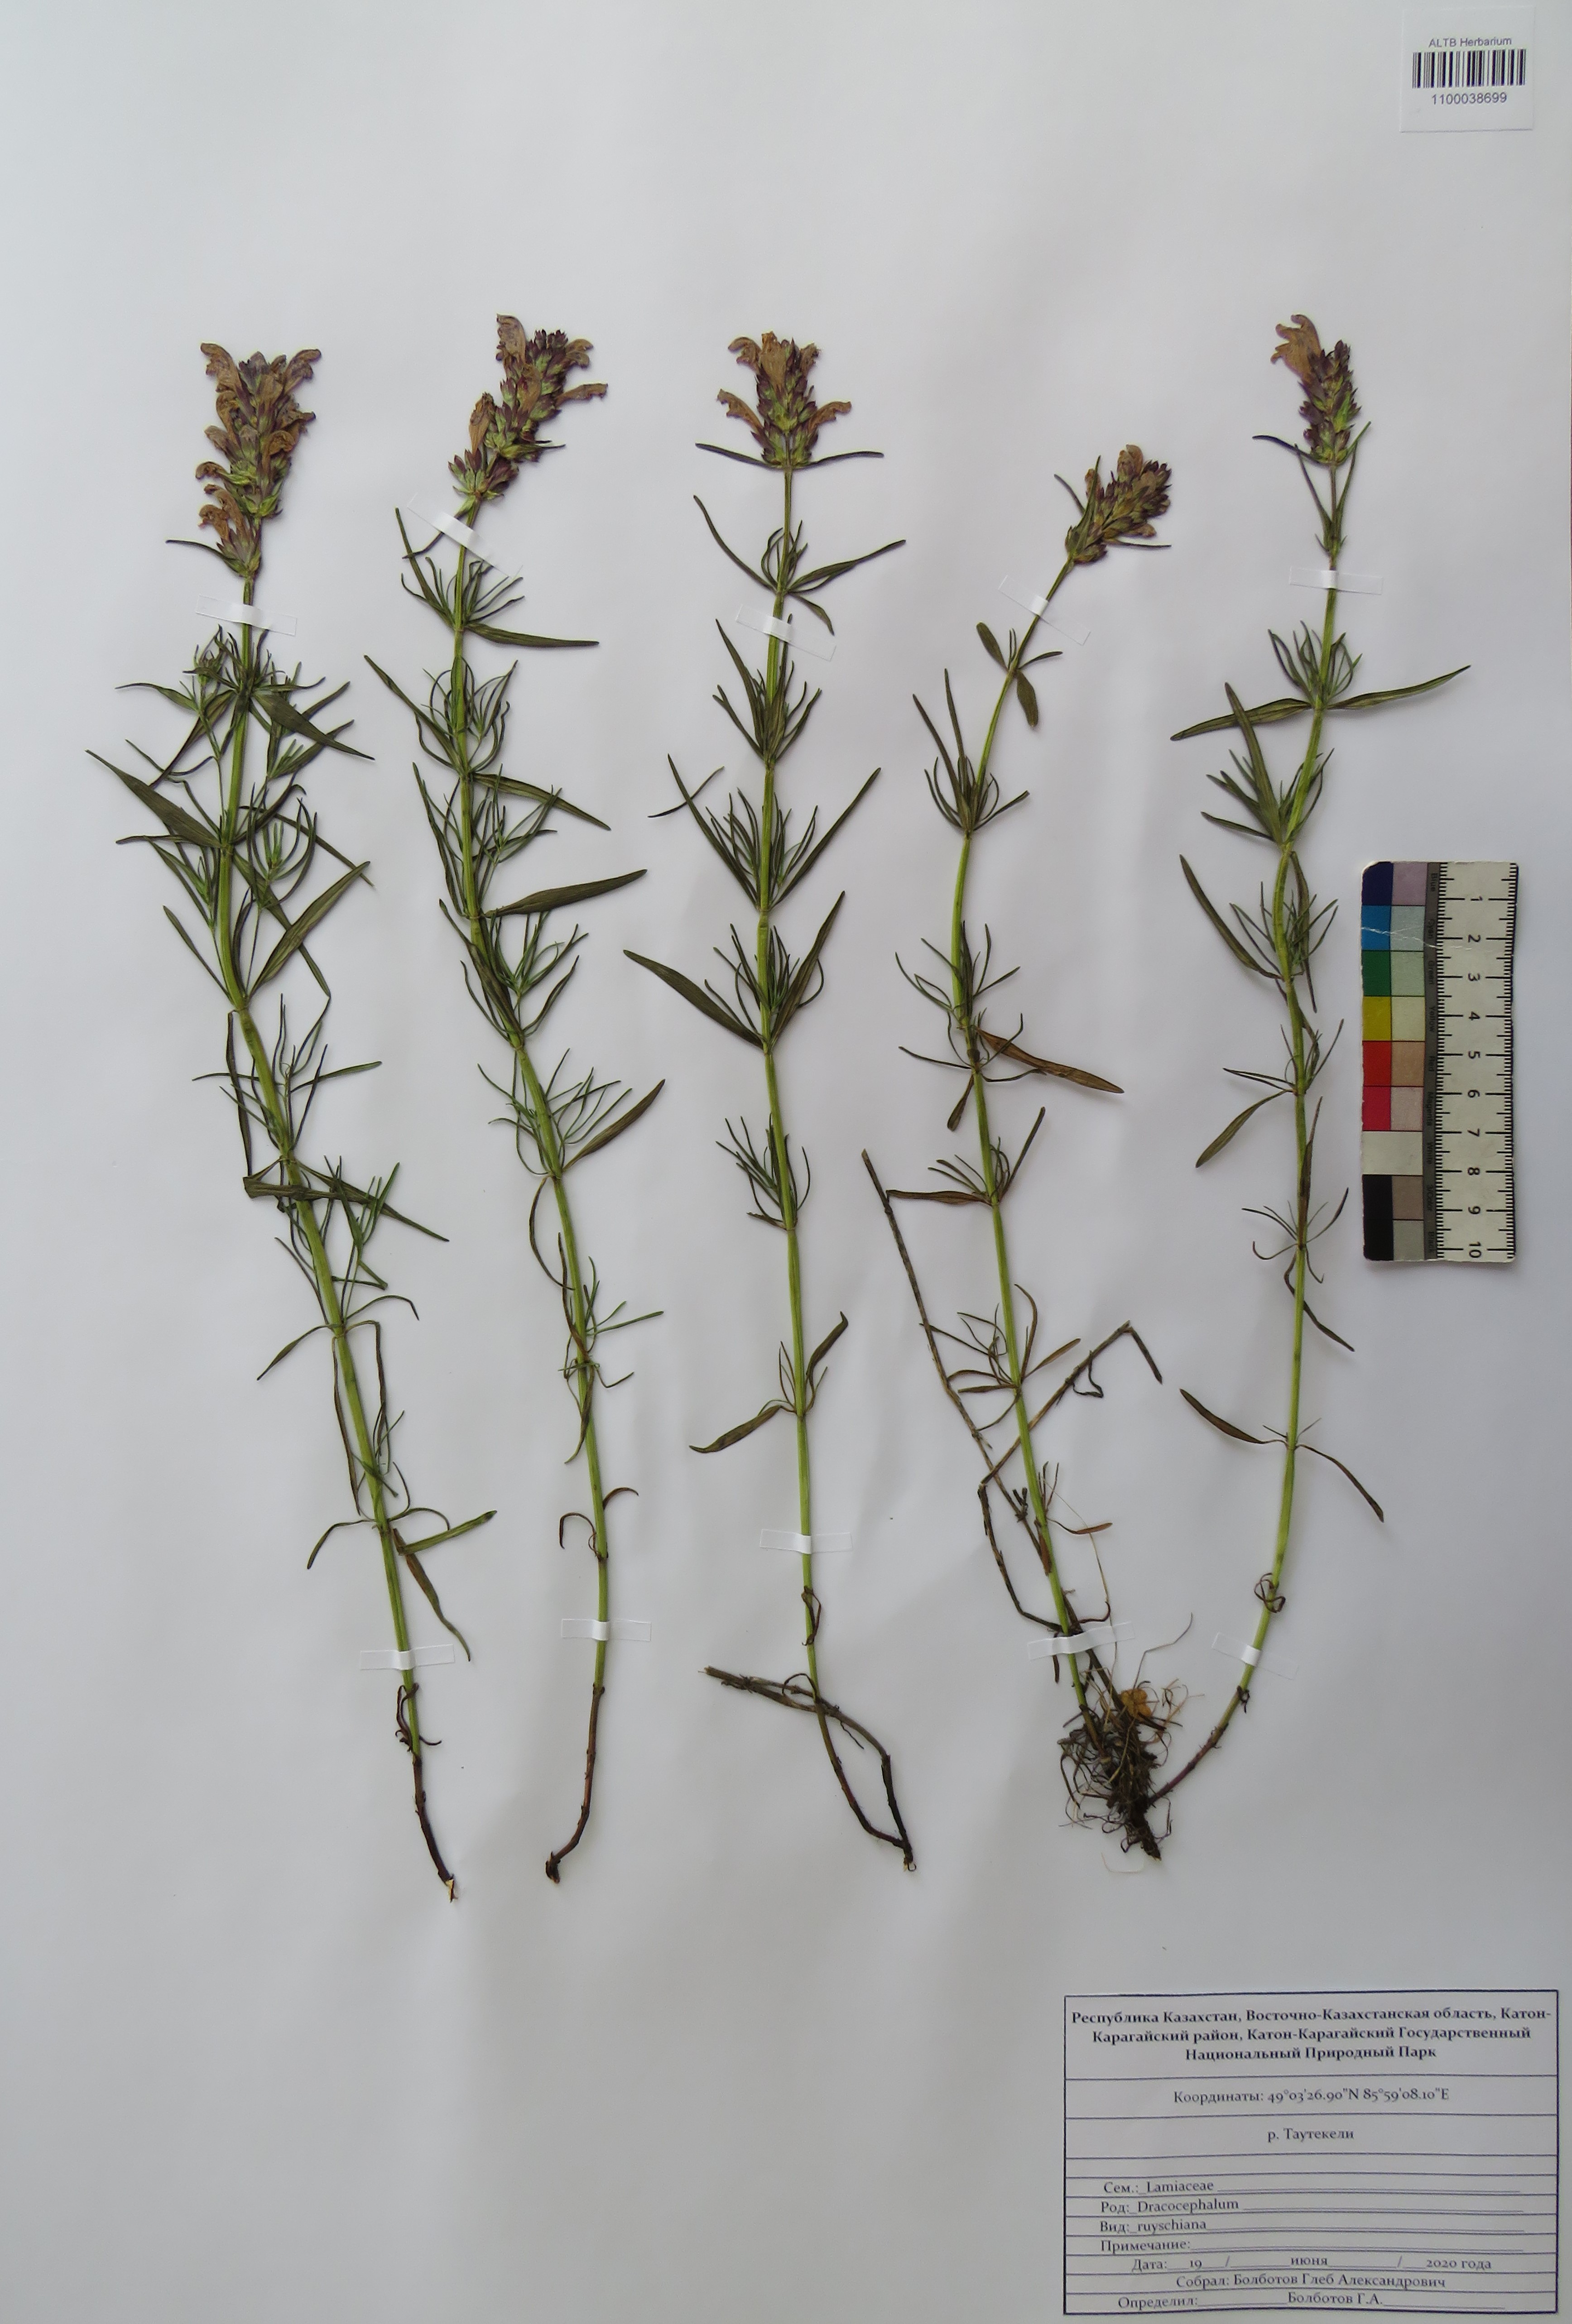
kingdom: Plantae
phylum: Tracheophyta
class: Magnoliopsida
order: Lamiales
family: Lamiaceae
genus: Dracocephalum
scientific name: Dracocephalum ruyschiana
